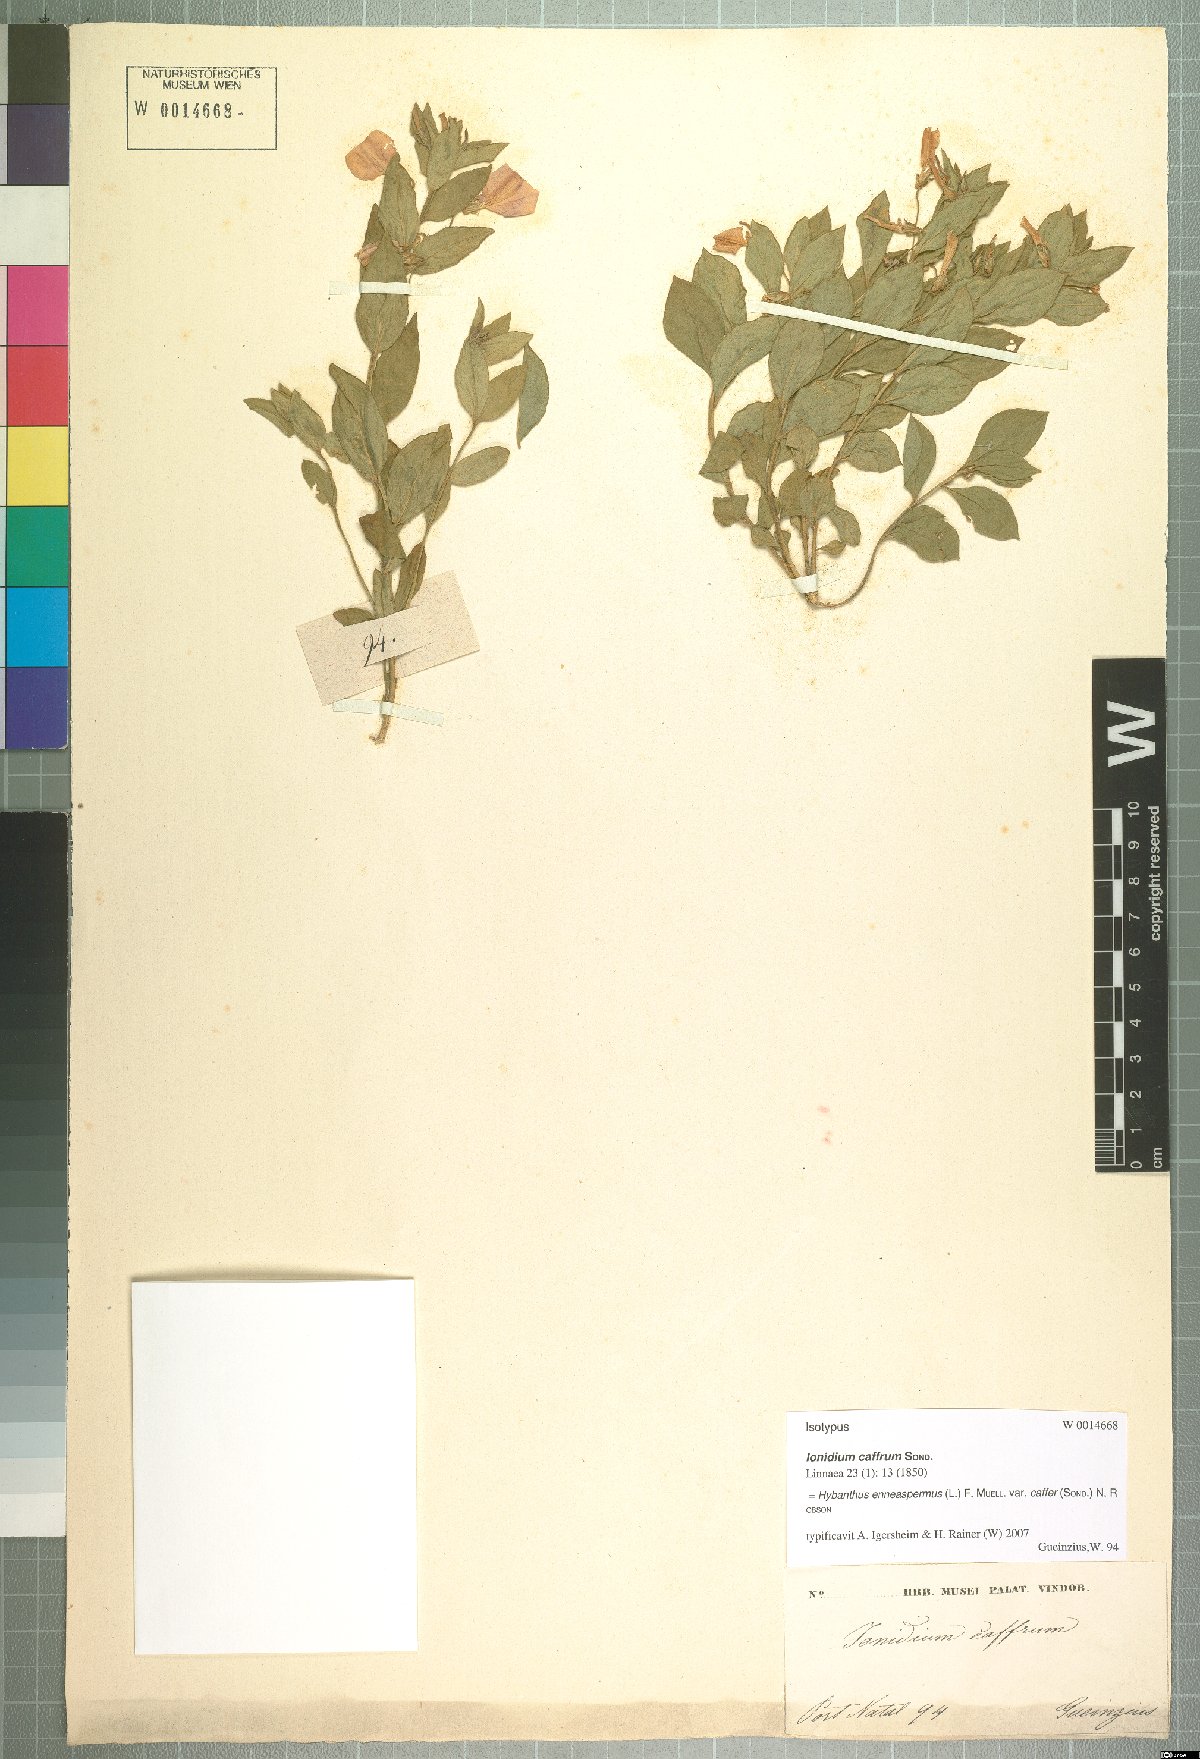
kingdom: Plantae
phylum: Tracheophyta
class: Magnoliopsida
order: Malpighiales
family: Violaceae
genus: Pigea
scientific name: Pigea caffra
